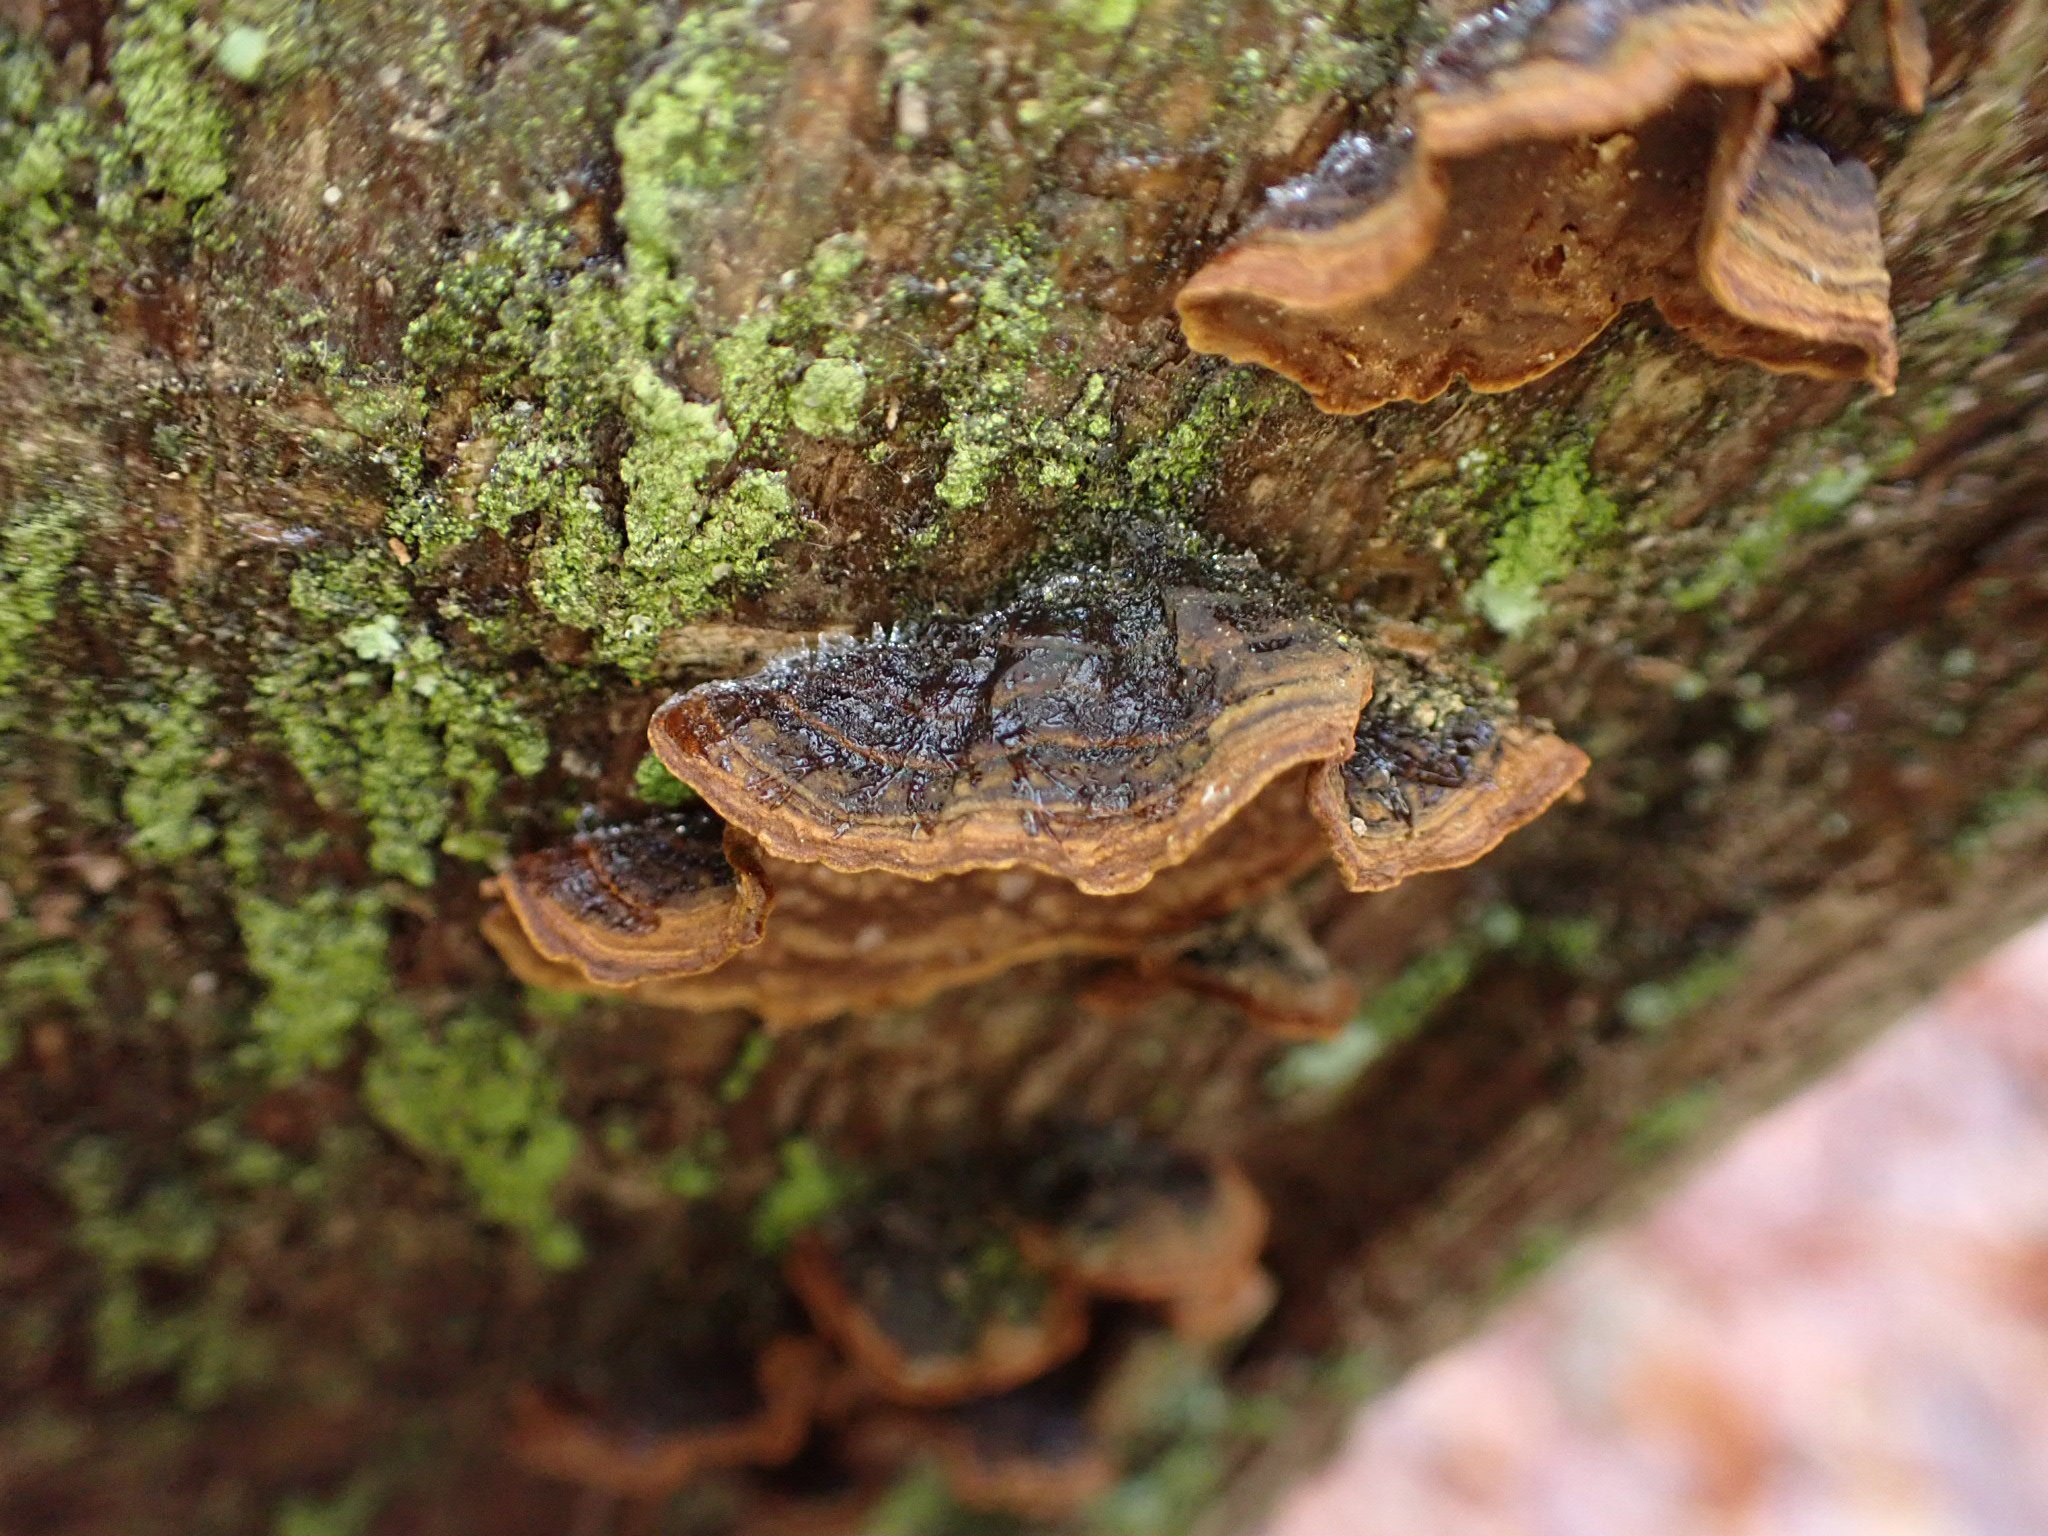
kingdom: Fungi
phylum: Basidiomycota
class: Agaricomycetes
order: Hymenochaetales
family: Hymenochaetaceae
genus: Hymenochaete
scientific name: Hymenochaete rubiginosa
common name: stiv ruslædersvamp
